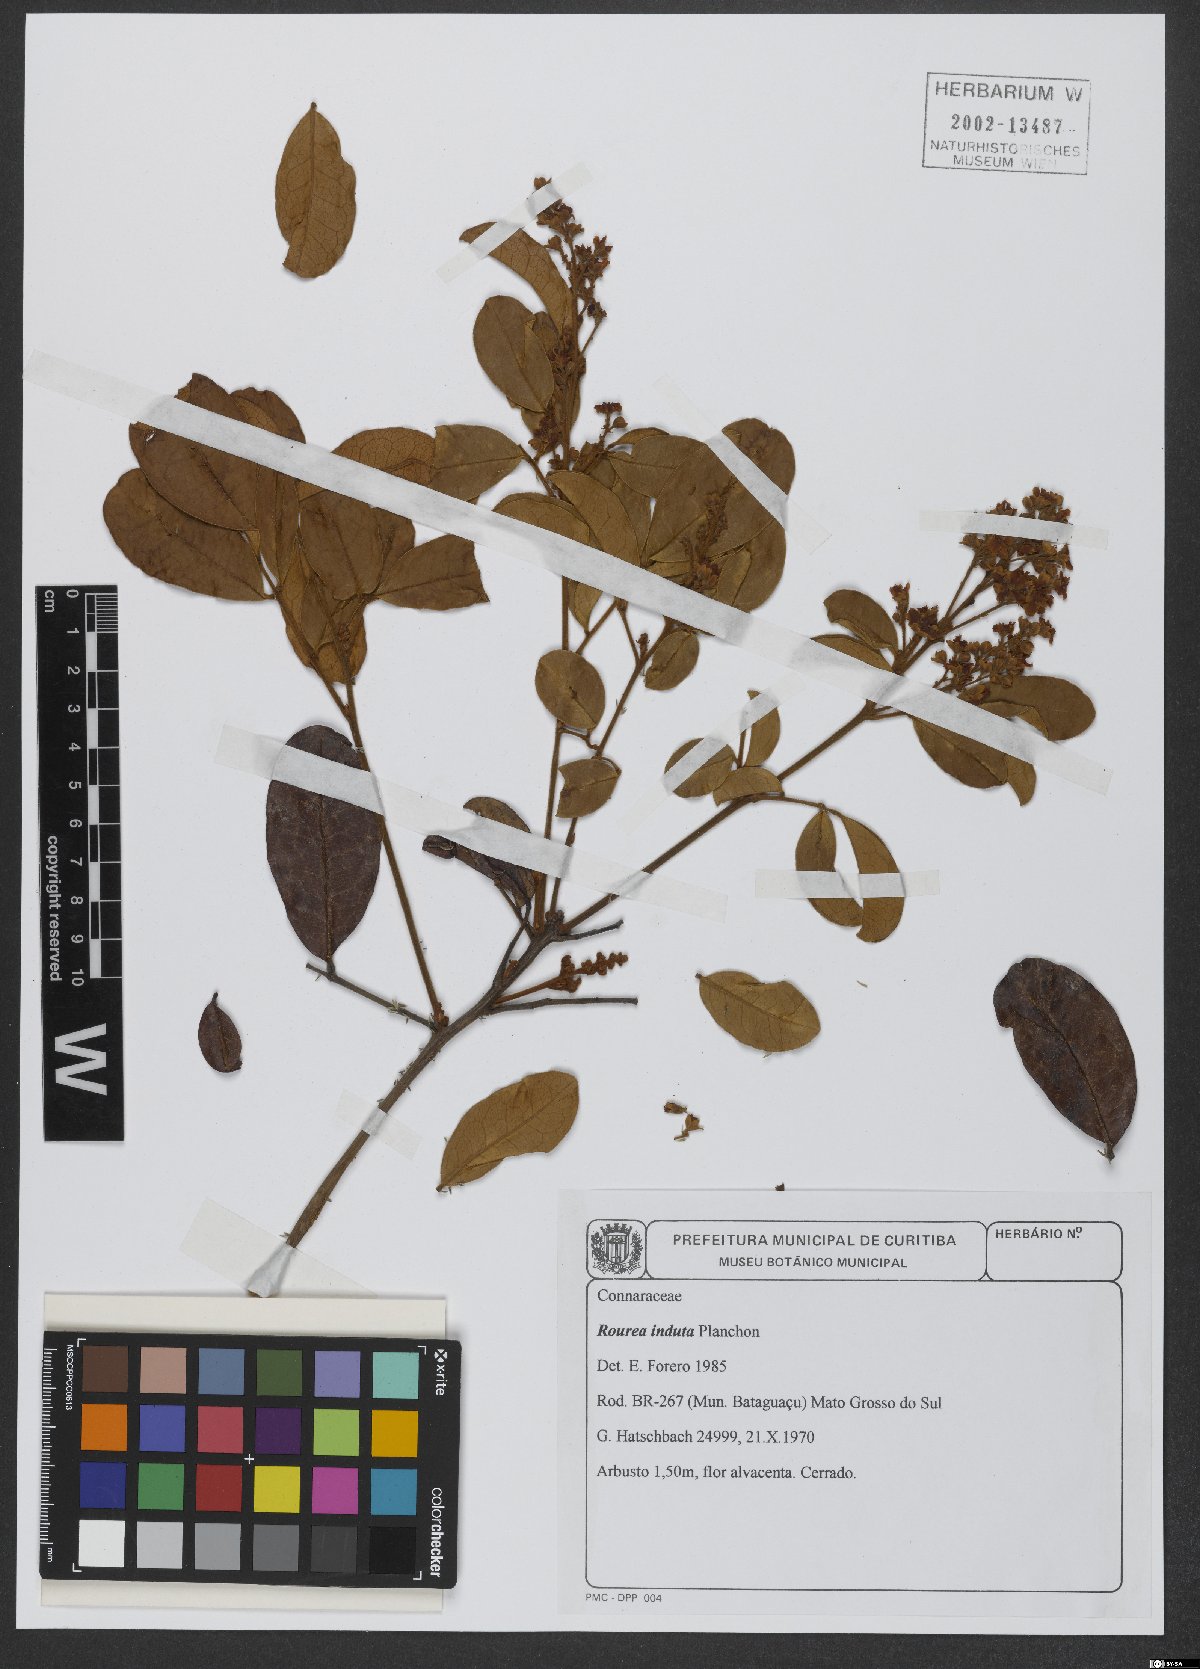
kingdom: Plantae
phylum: Tracheophyta
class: Magnoliopsida
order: Oxalidales
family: Connaraceae
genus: Rourea
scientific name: Rourea induta
